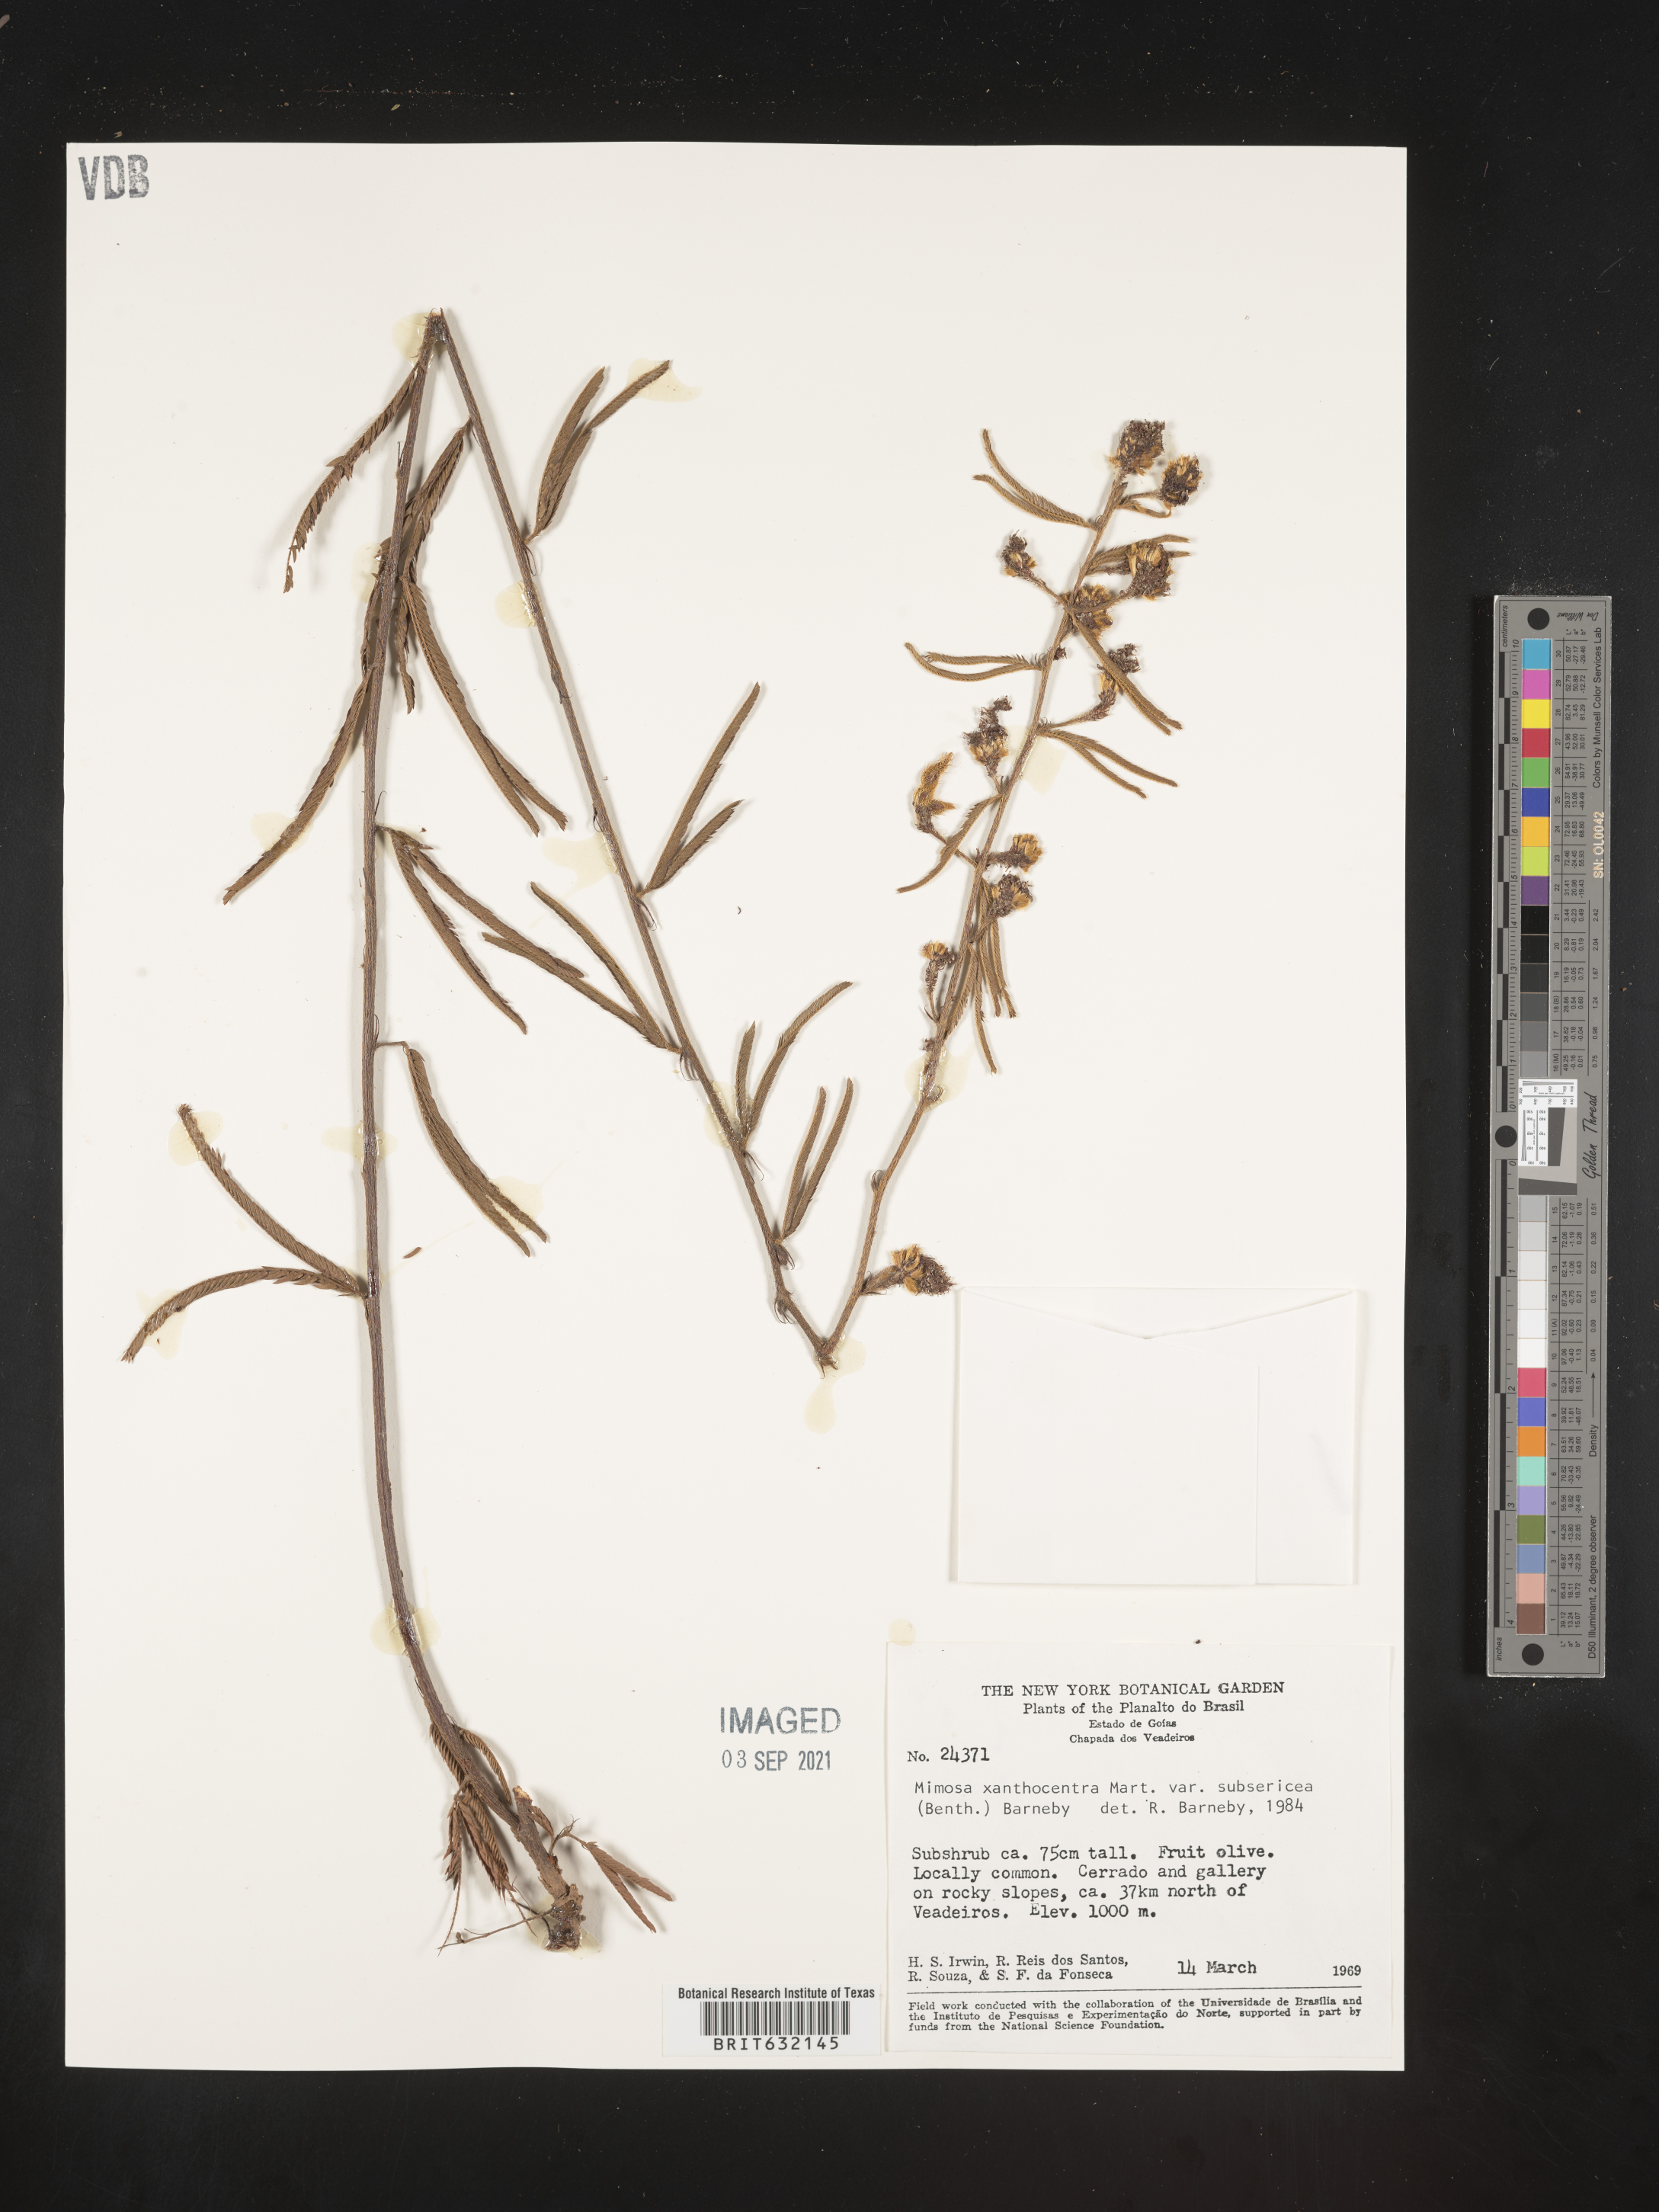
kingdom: Plantae
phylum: Tracheophyta
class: Magnoliopsida
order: Fabales
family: Fabaceae
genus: Mimosa
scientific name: Mimosa
